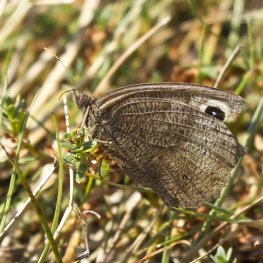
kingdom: Animalia
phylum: Arthropoda
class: Insecta
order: Lepidoptera
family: Nymphalidae
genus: Cercyonis
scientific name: Cercyonis pegala
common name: Common Wood-Nymph
